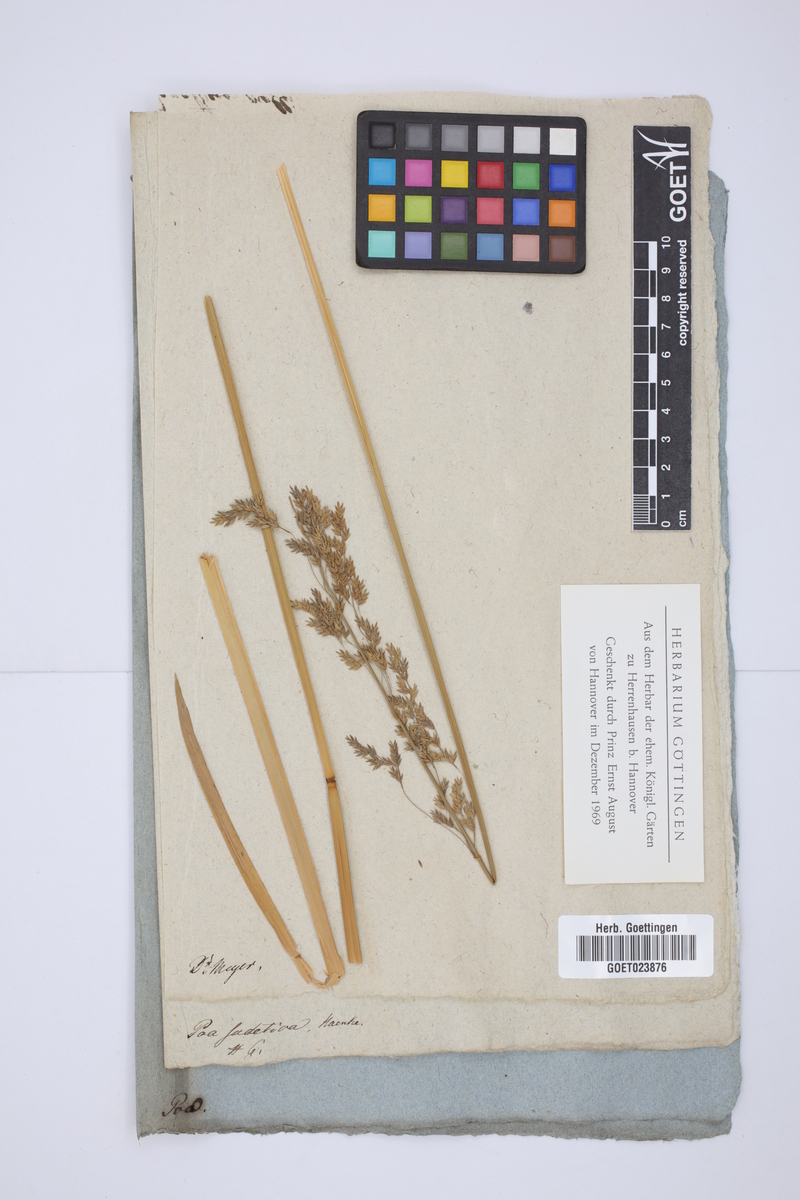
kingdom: Plantae
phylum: Tracheophyta
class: Liliopsida
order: Poales
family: Poaceae
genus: Poa
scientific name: Poa chaixii
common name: Broad-leaved meadow-grass
